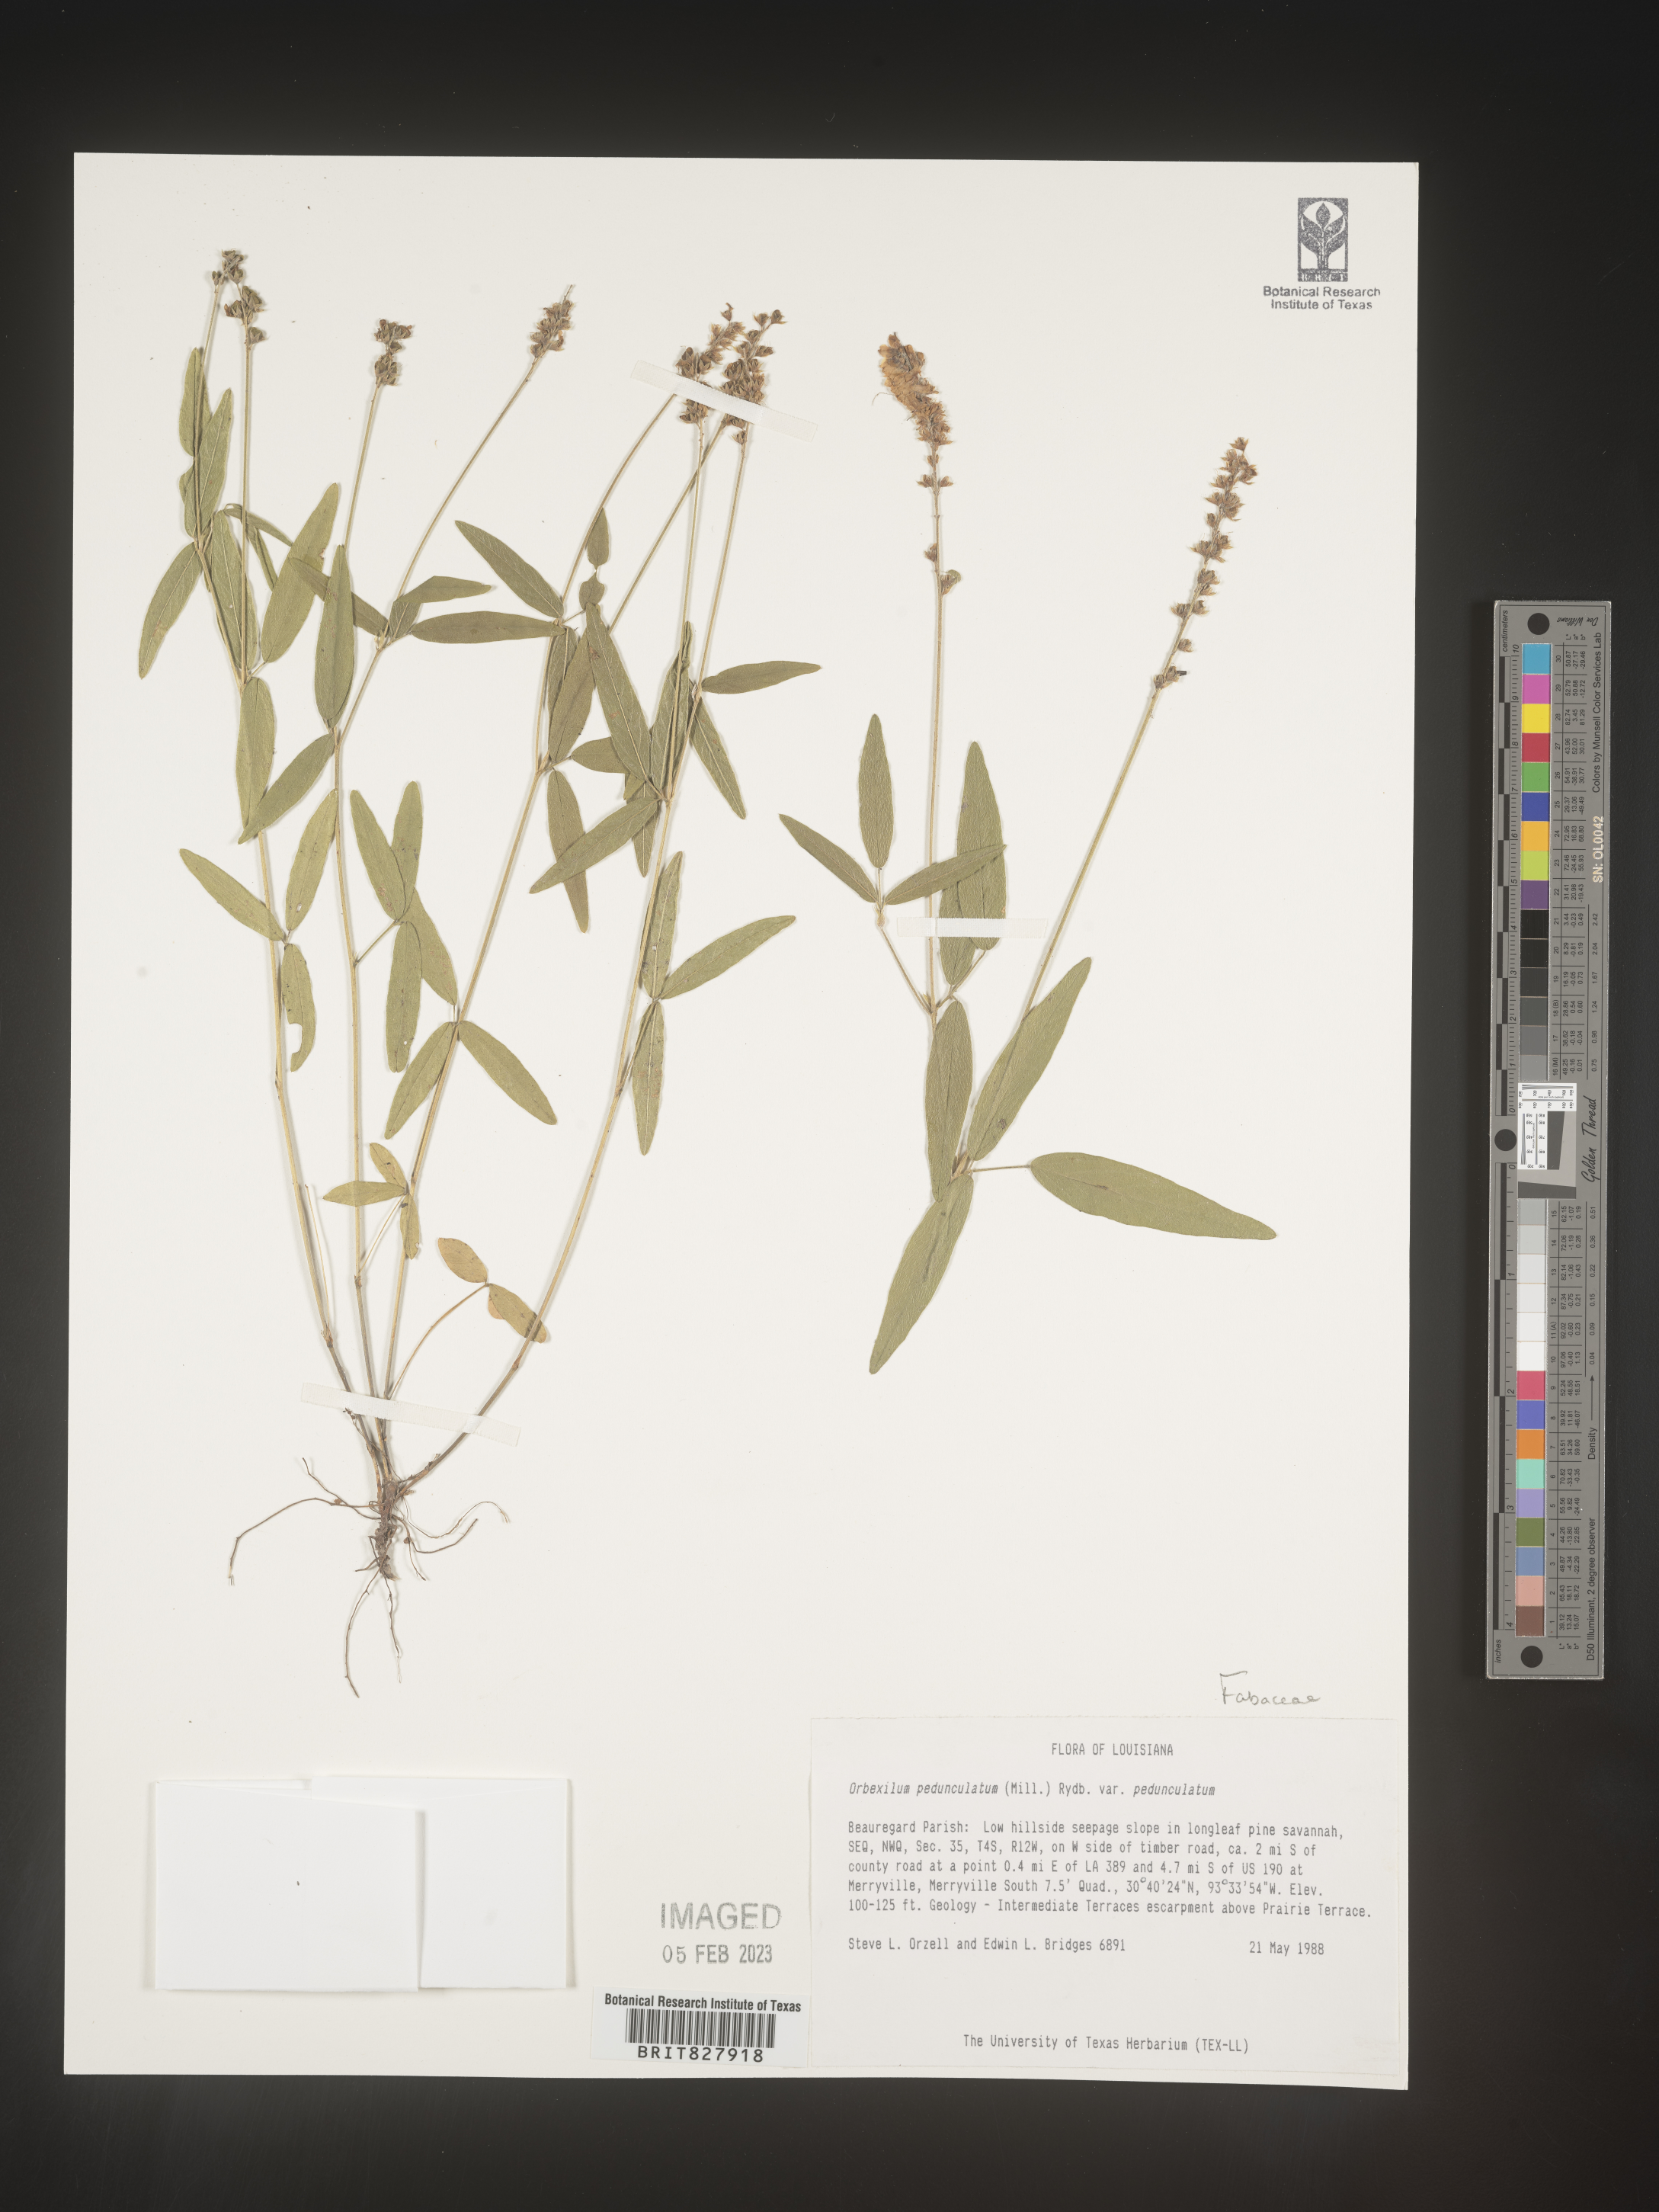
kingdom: Plantae
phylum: Tracheophyta
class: Magnoliopsida
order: Fabales
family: Fabaceae
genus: Orbexilum
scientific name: Orbexilum pedunculatum
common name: Sampson's snakeroot
